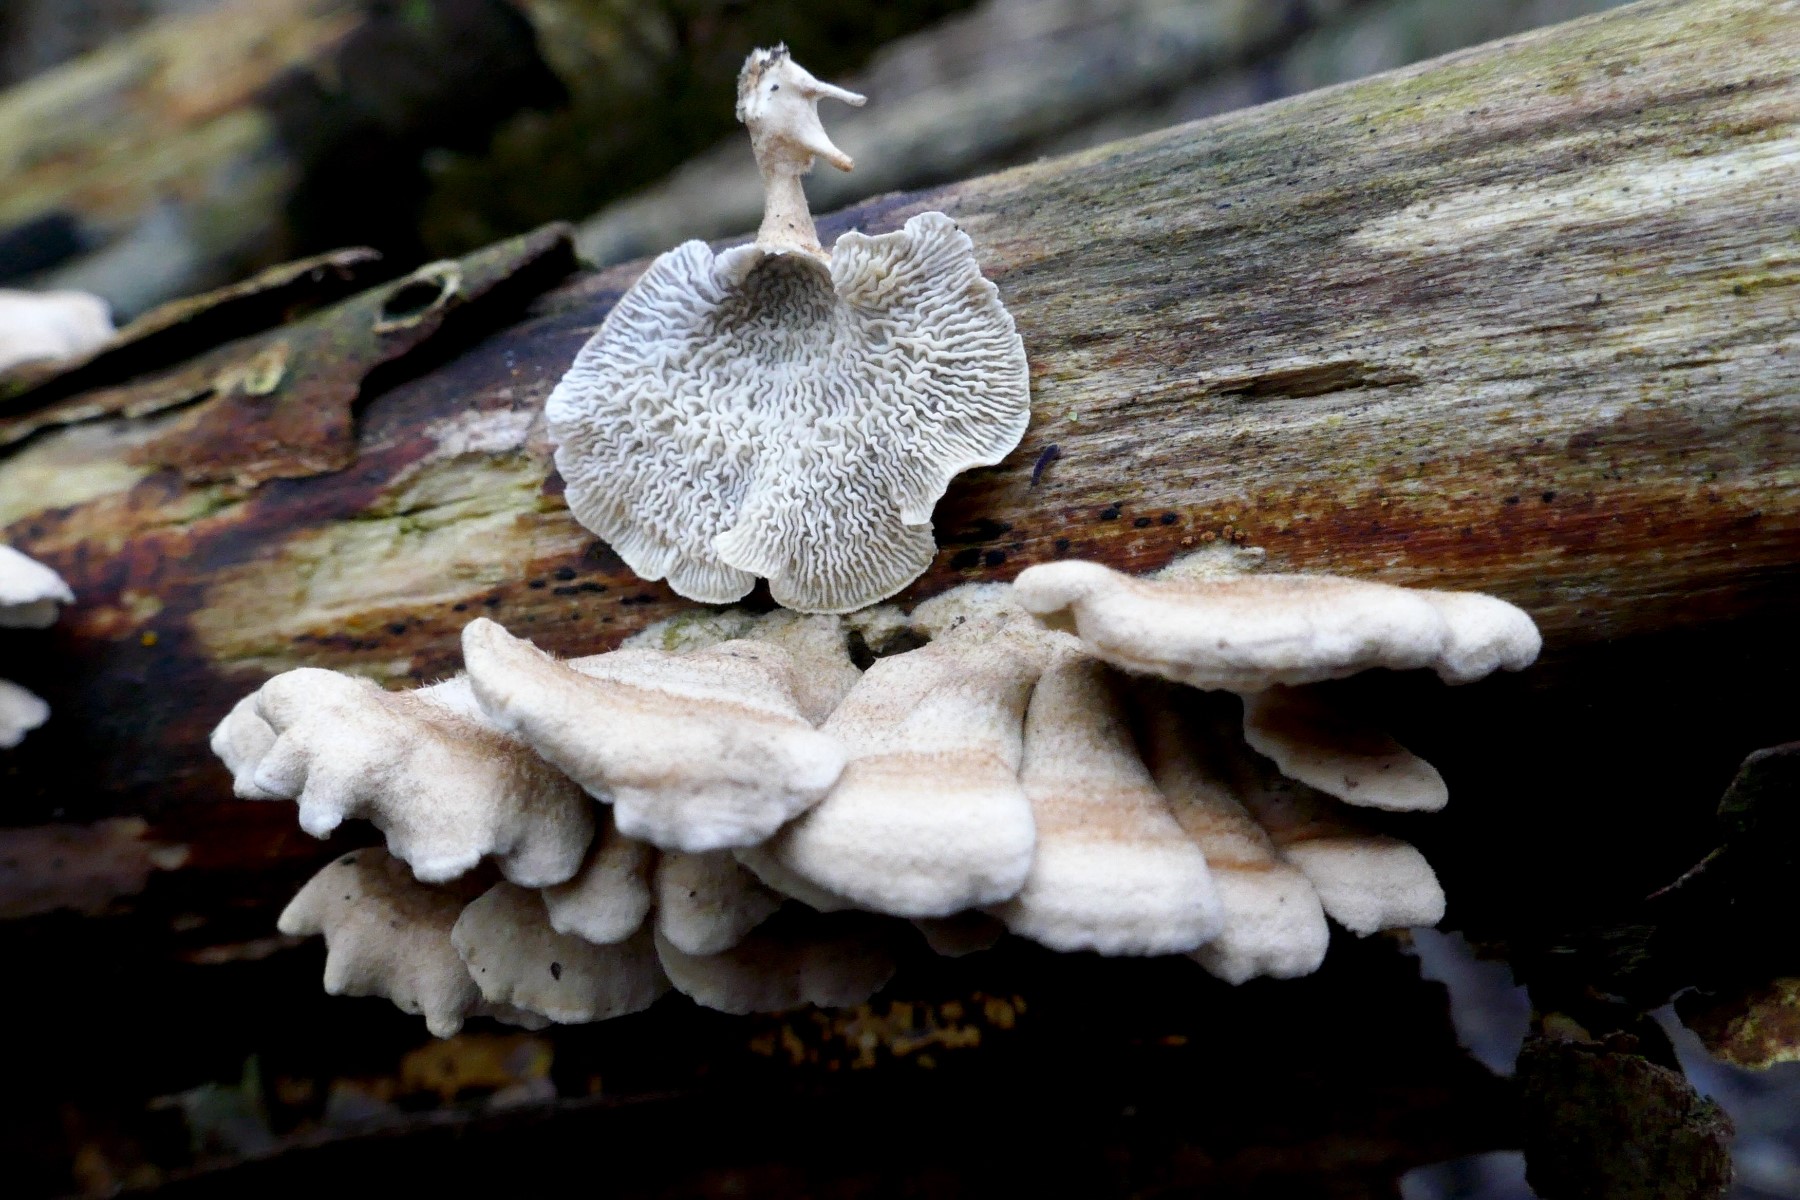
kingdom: Fungi
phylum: Basidiomycota
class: Agaricomycetes
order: Amylocorticiales
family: Amylocorticiaceae
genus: Plicaturopsis
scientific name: Plicaturopsis crispa
